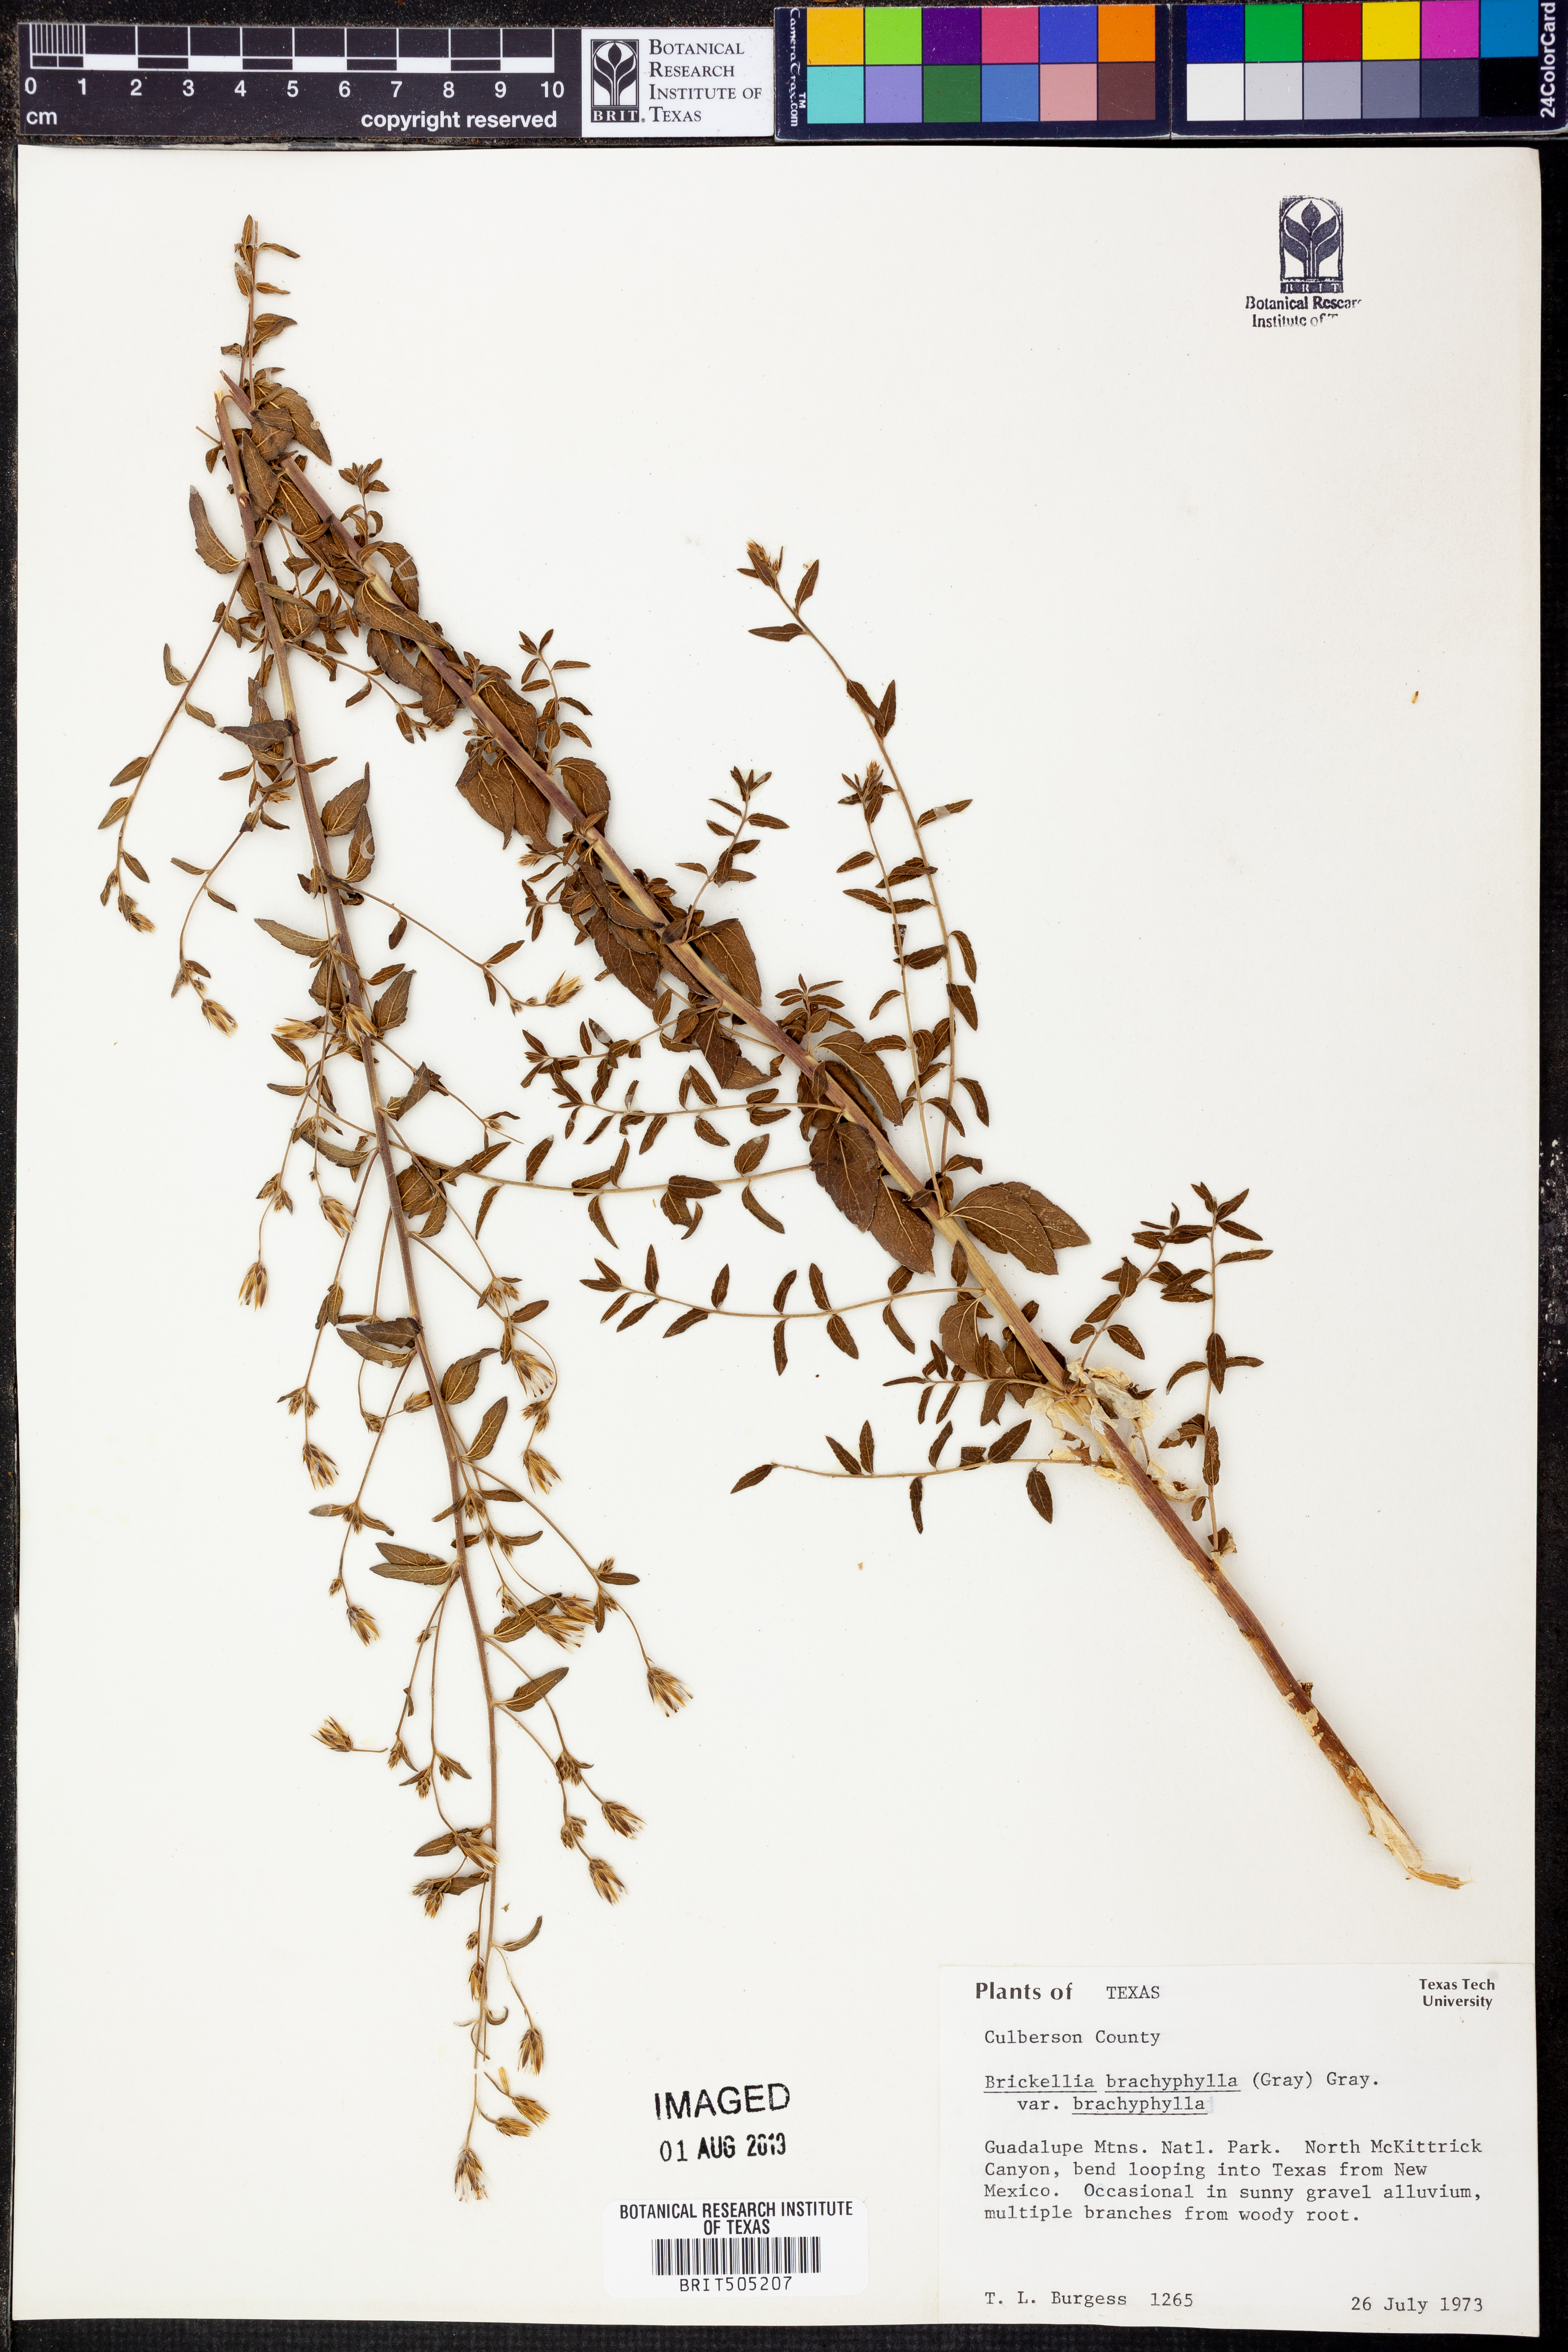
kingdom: Plantae
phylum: Tracheophyta
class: Magnoliopsida
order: Asterales
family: Asteraceae
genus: Brickellia
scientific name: Brickellia brachyphylla
